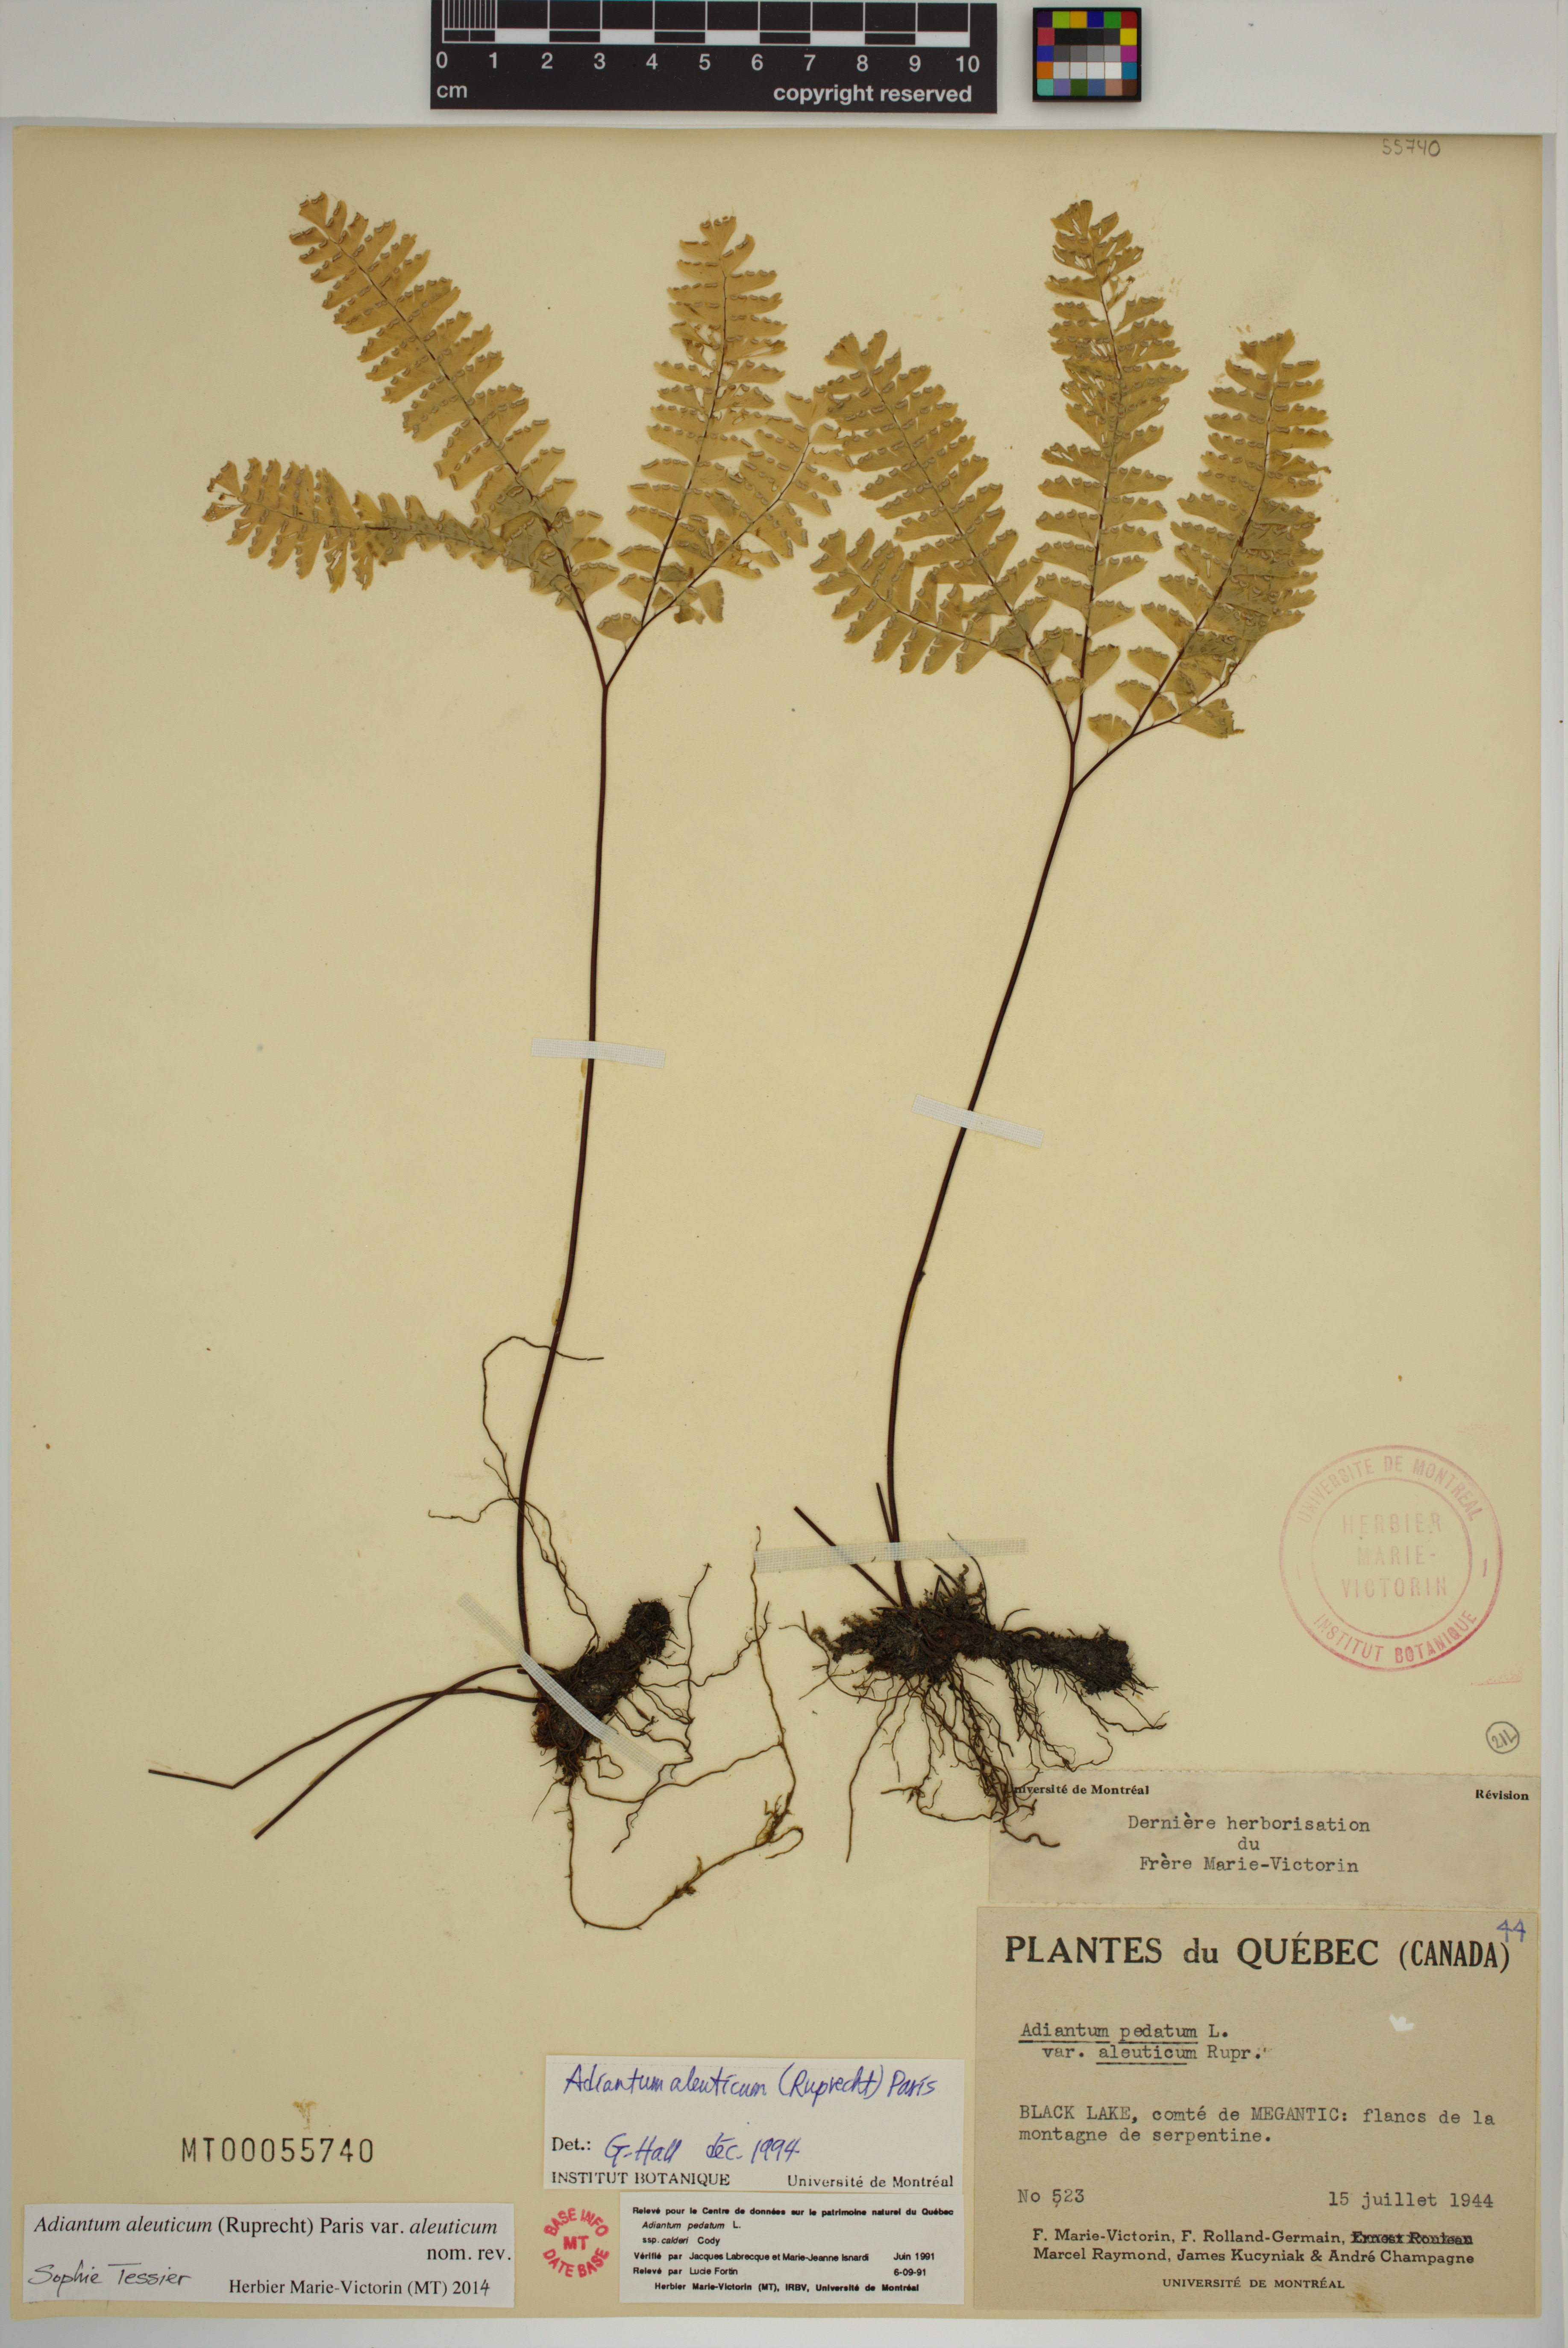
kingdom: Plantae
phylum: Tracheophyta
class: Polypodiopsida
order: Polypodiales
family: Pteridaceae
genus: Adiantum
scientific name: Adiantum aleuticum
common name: Aleutian maidenhair fern
